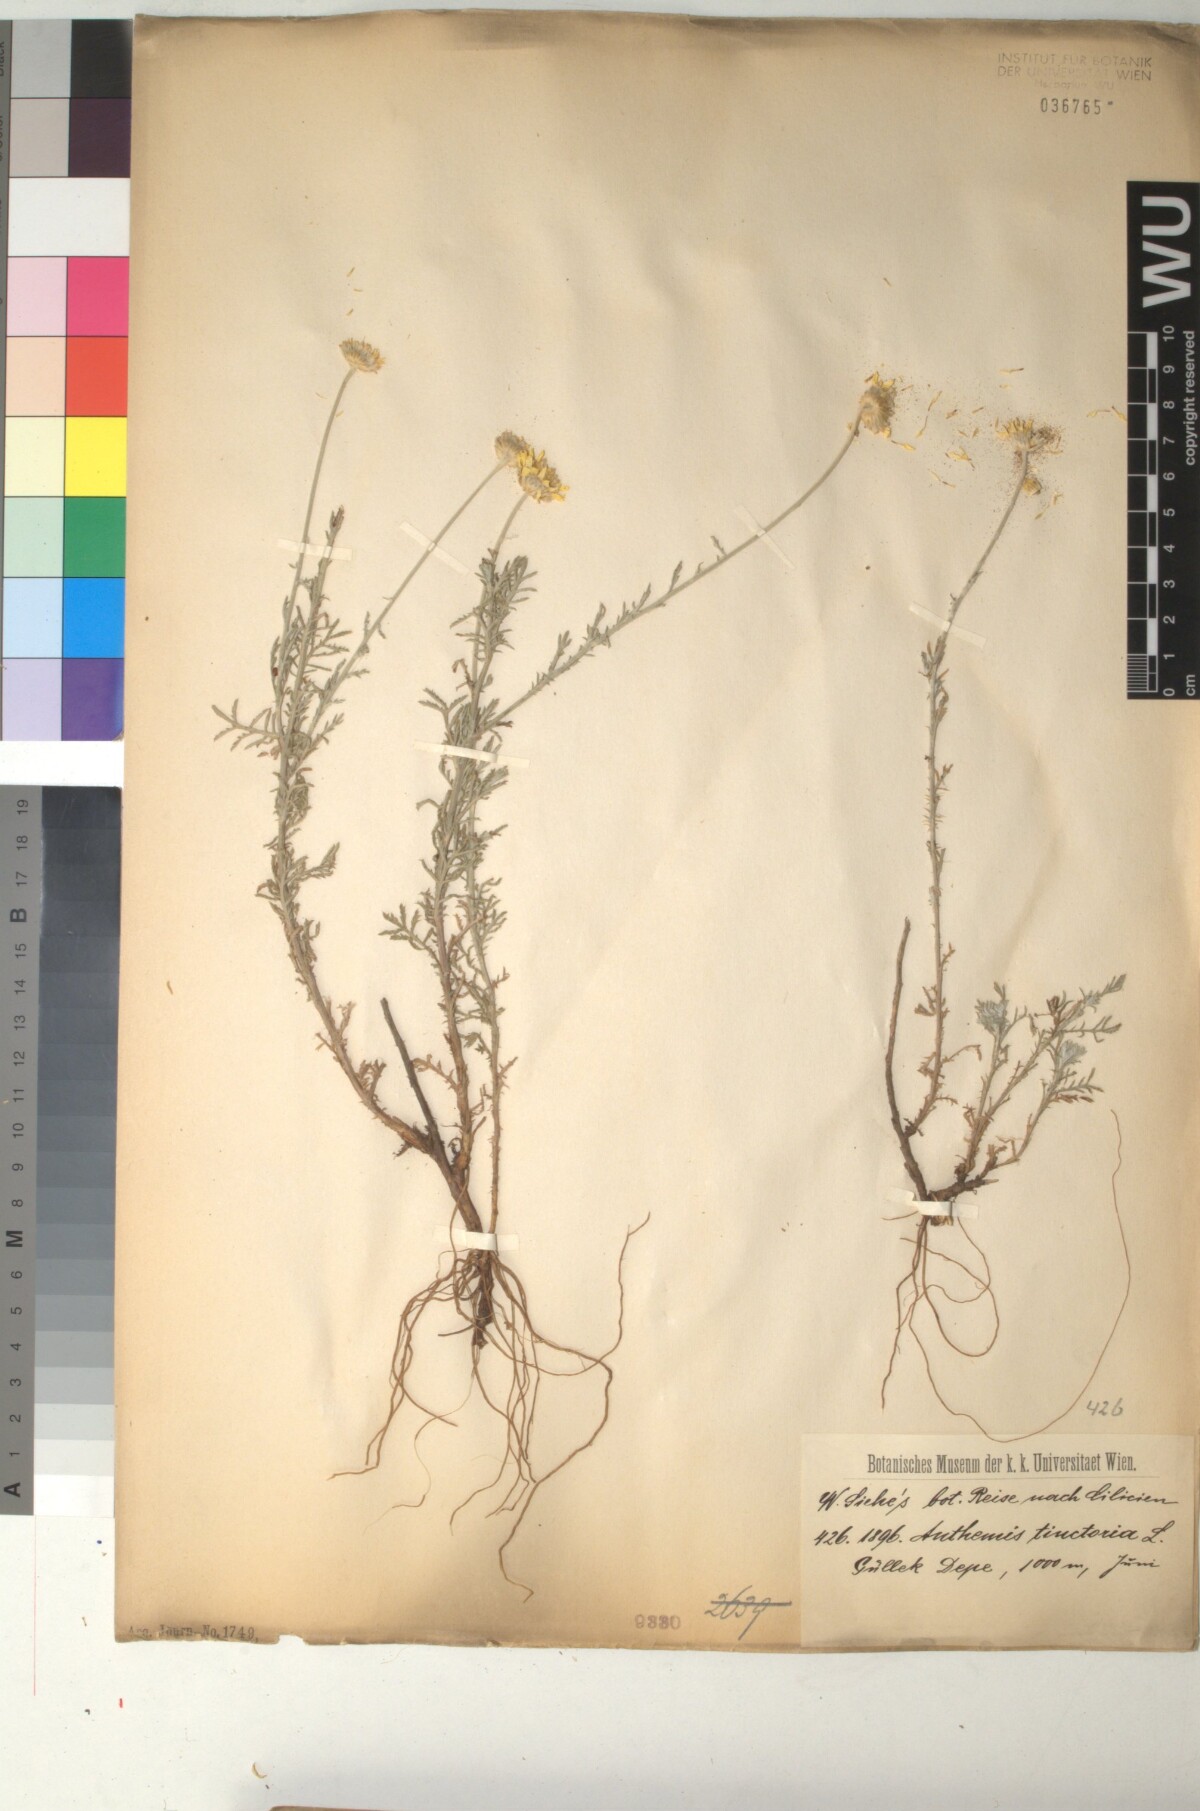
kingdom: Plantae
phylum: Tracheophyta
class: Magnoliopsida
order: Asterales
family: Asteraceae
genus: Cota
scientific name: Cota tinctoria
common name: Golden chamomile
